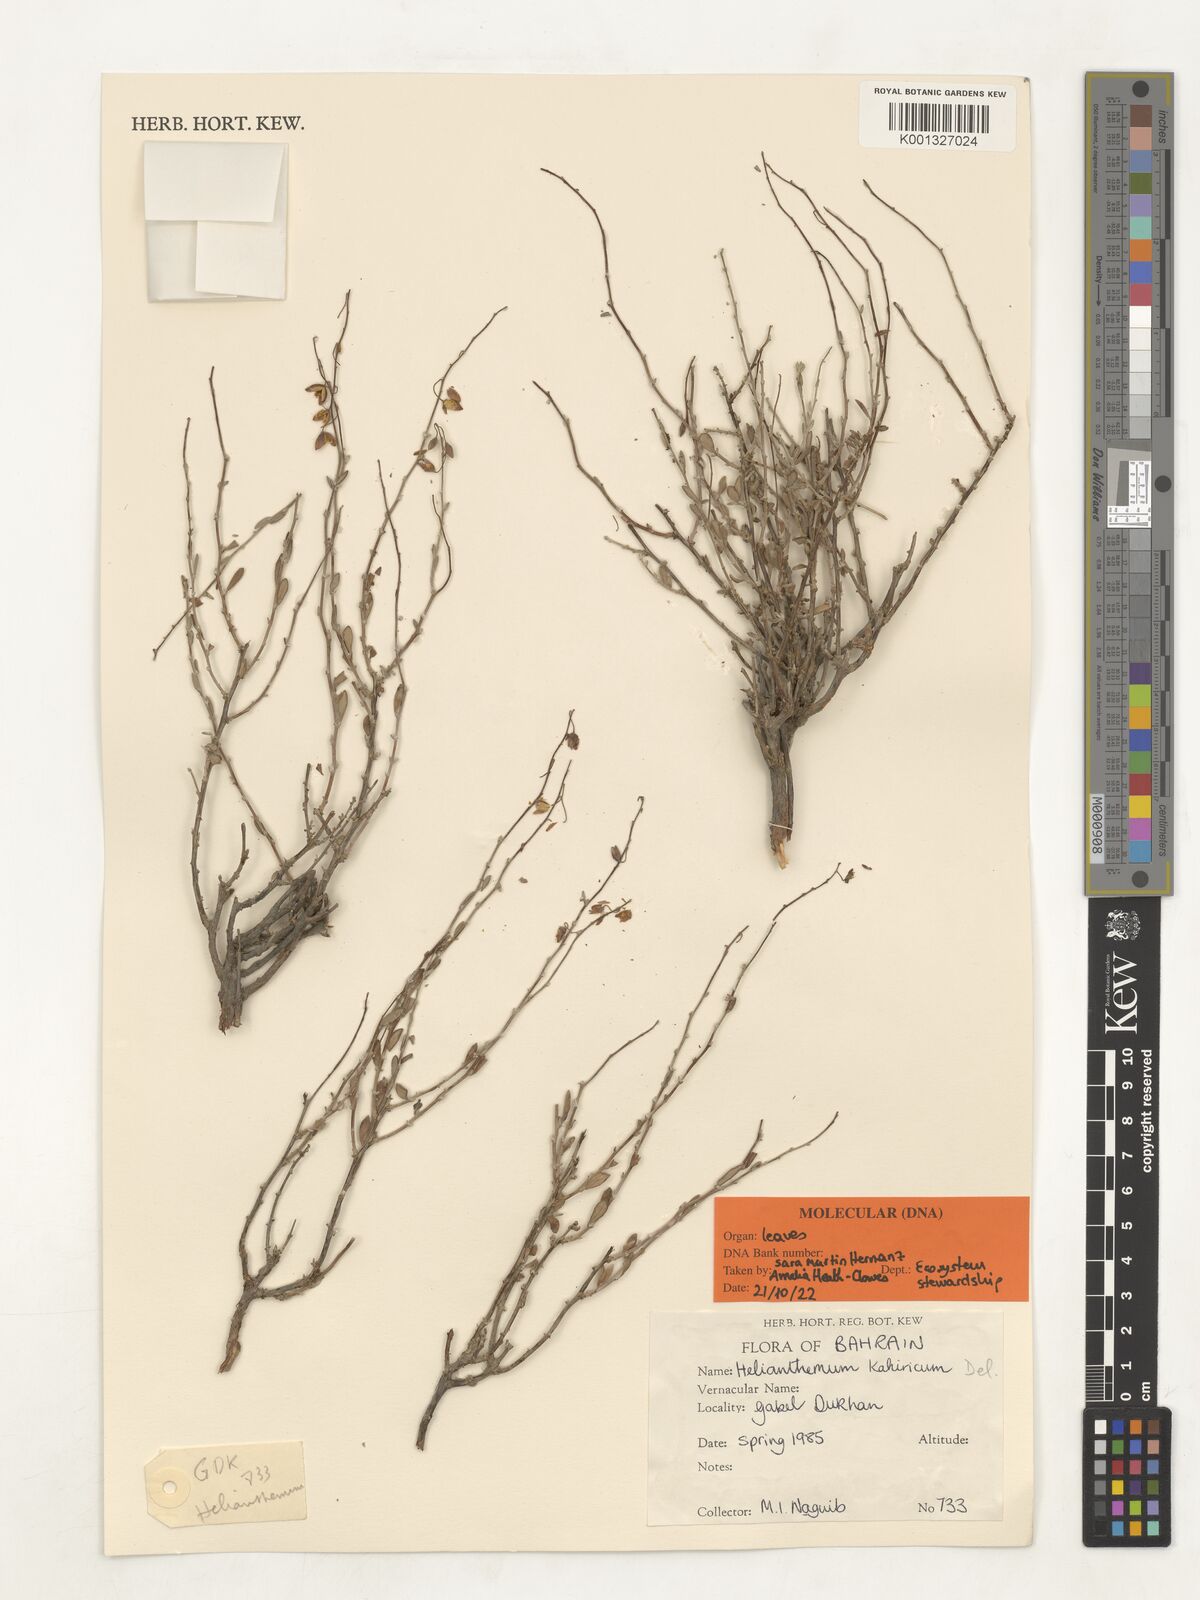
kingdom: Plantae
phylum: Tracheophyta
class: Magnoliopsida
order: Malvales
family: Cistaceae
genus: Helianthemum
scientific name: Helianthemum kahiricum
